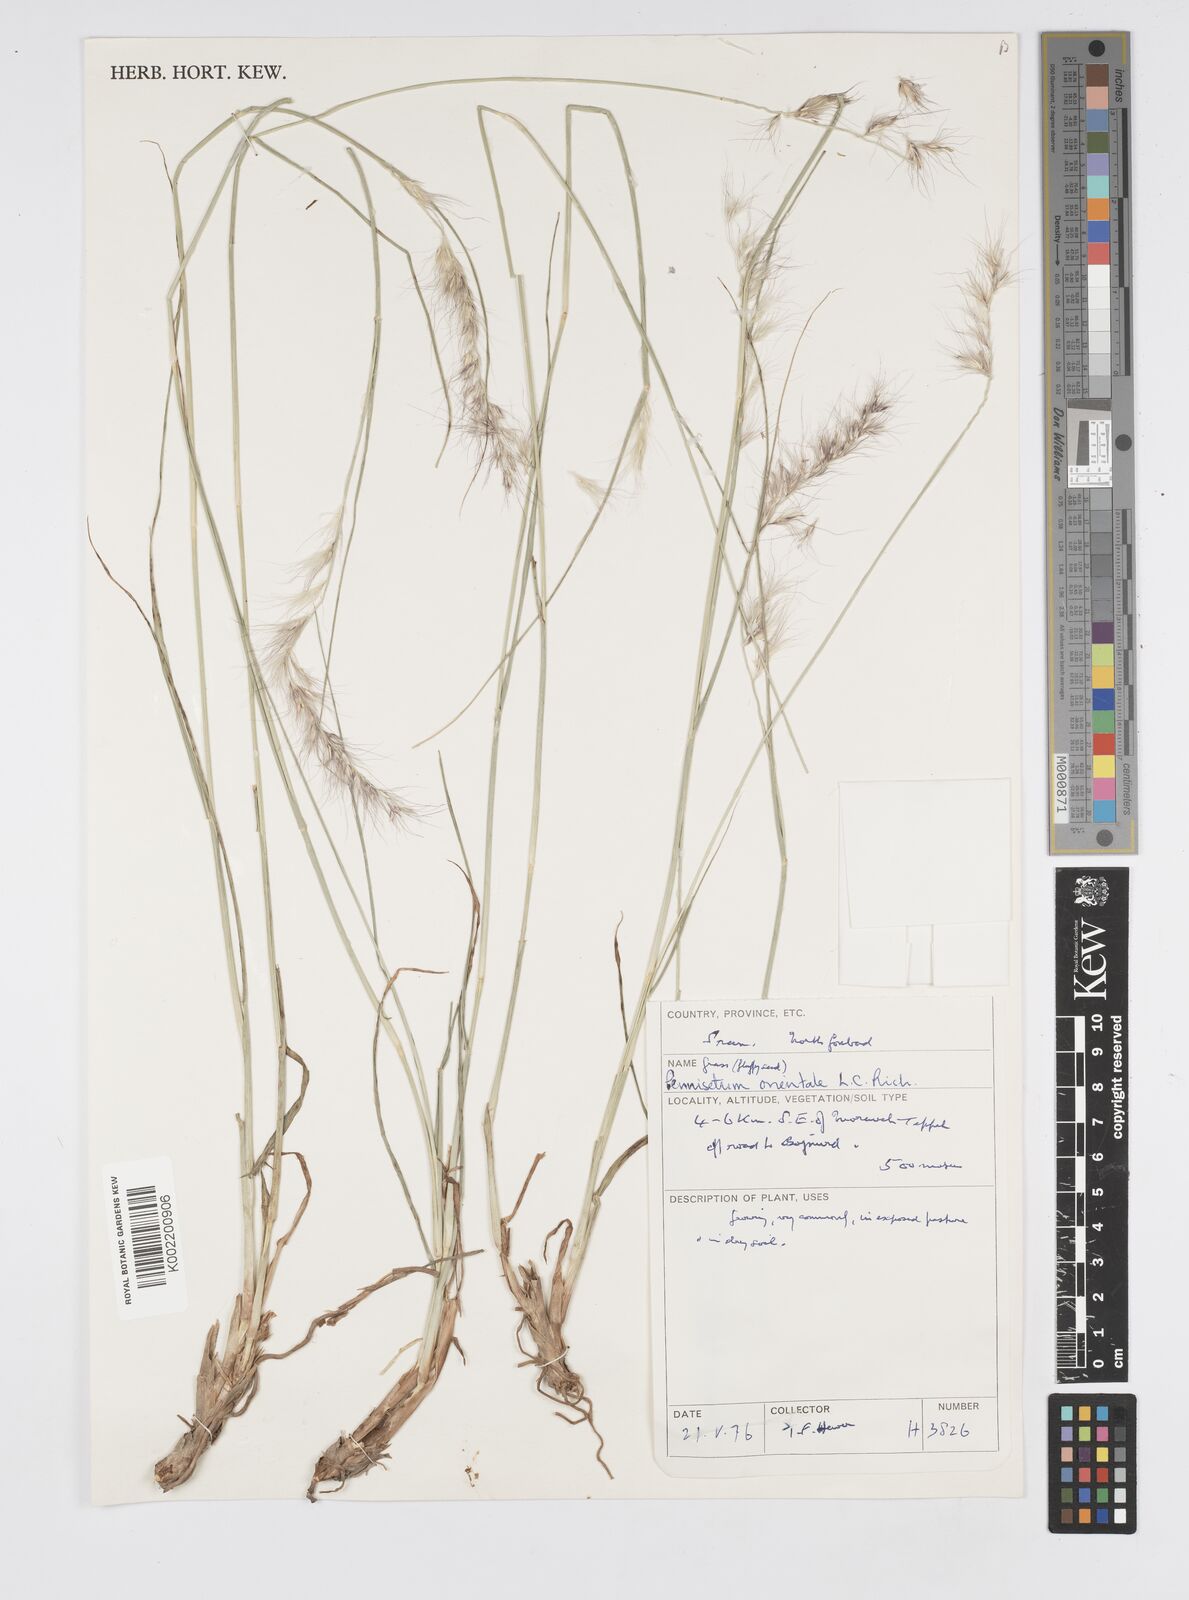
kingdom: Plantae
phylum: Tracheophyta
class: Liliopsida
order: Poales
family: Poaceae
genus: Cenchrus
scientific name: Cenchrus orientalis
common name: Oriental fountain grass
